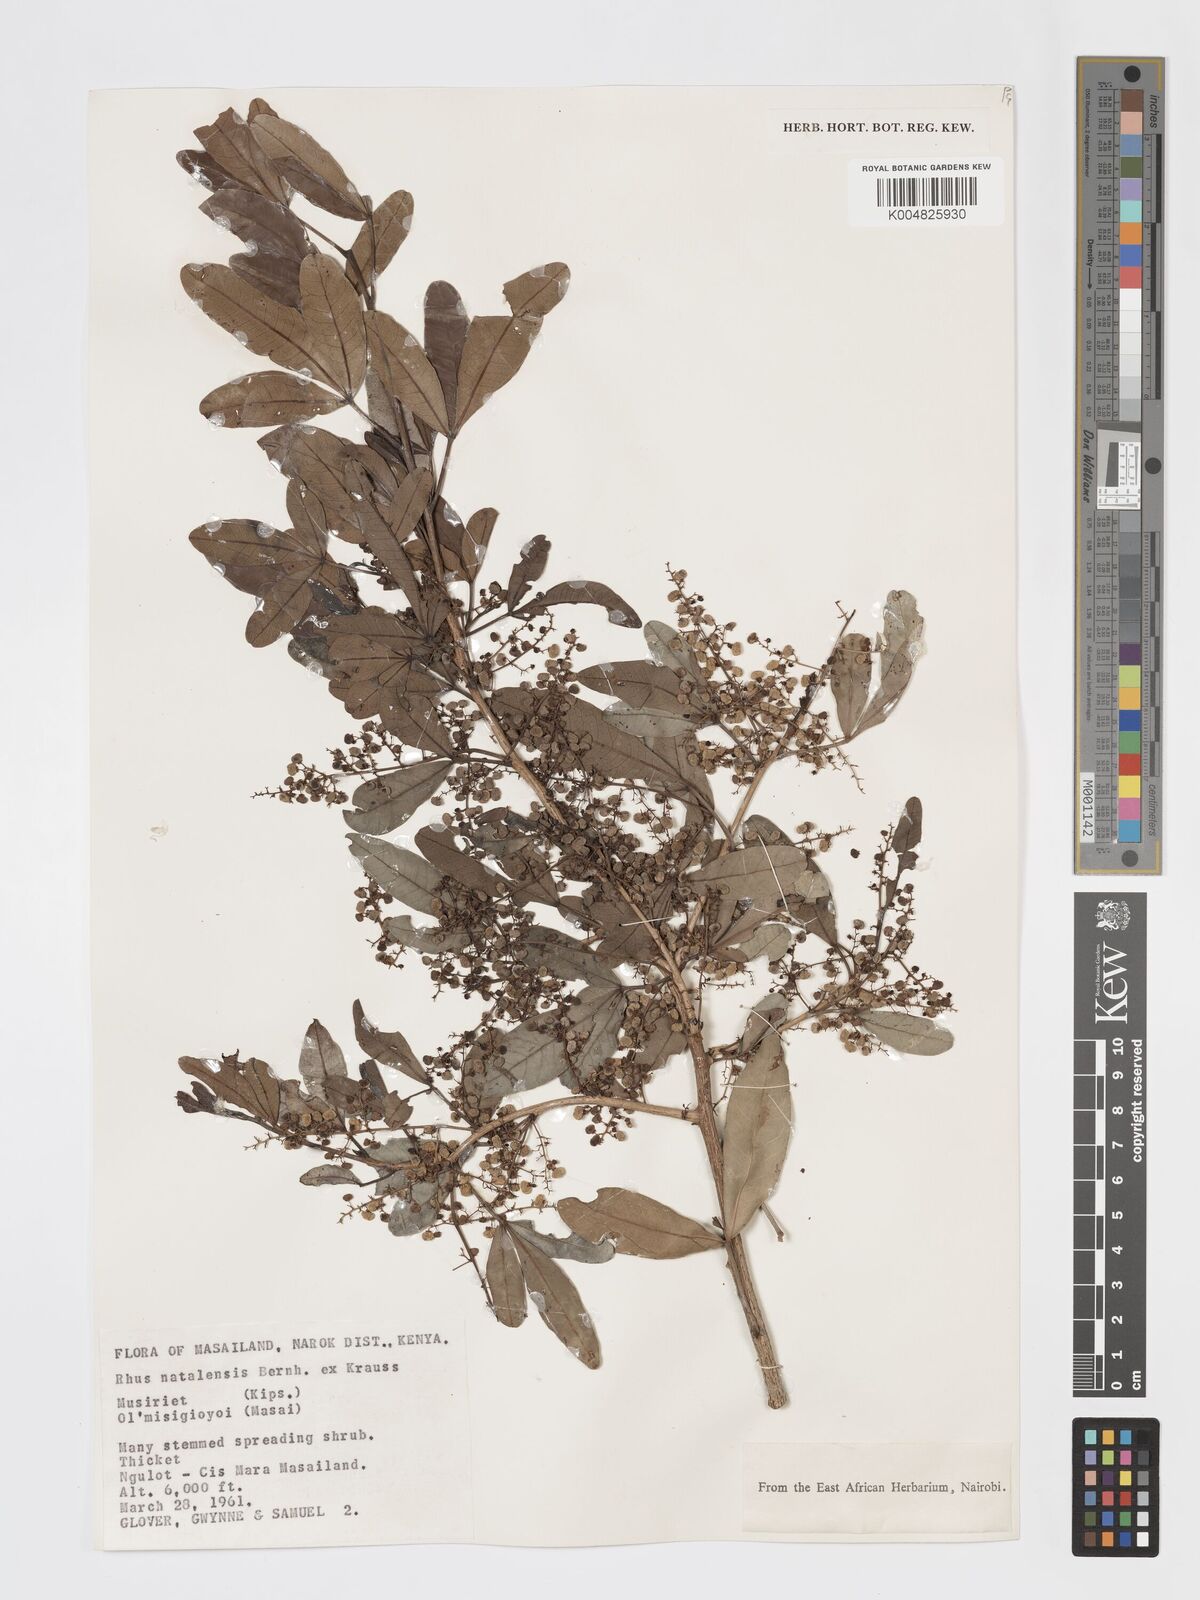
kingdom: Plantae
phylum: Tracheophyta
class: Magnoliopsida
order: Sapindales
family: Anacardiaceae
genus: Searsia
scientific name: Searsia natalensis
